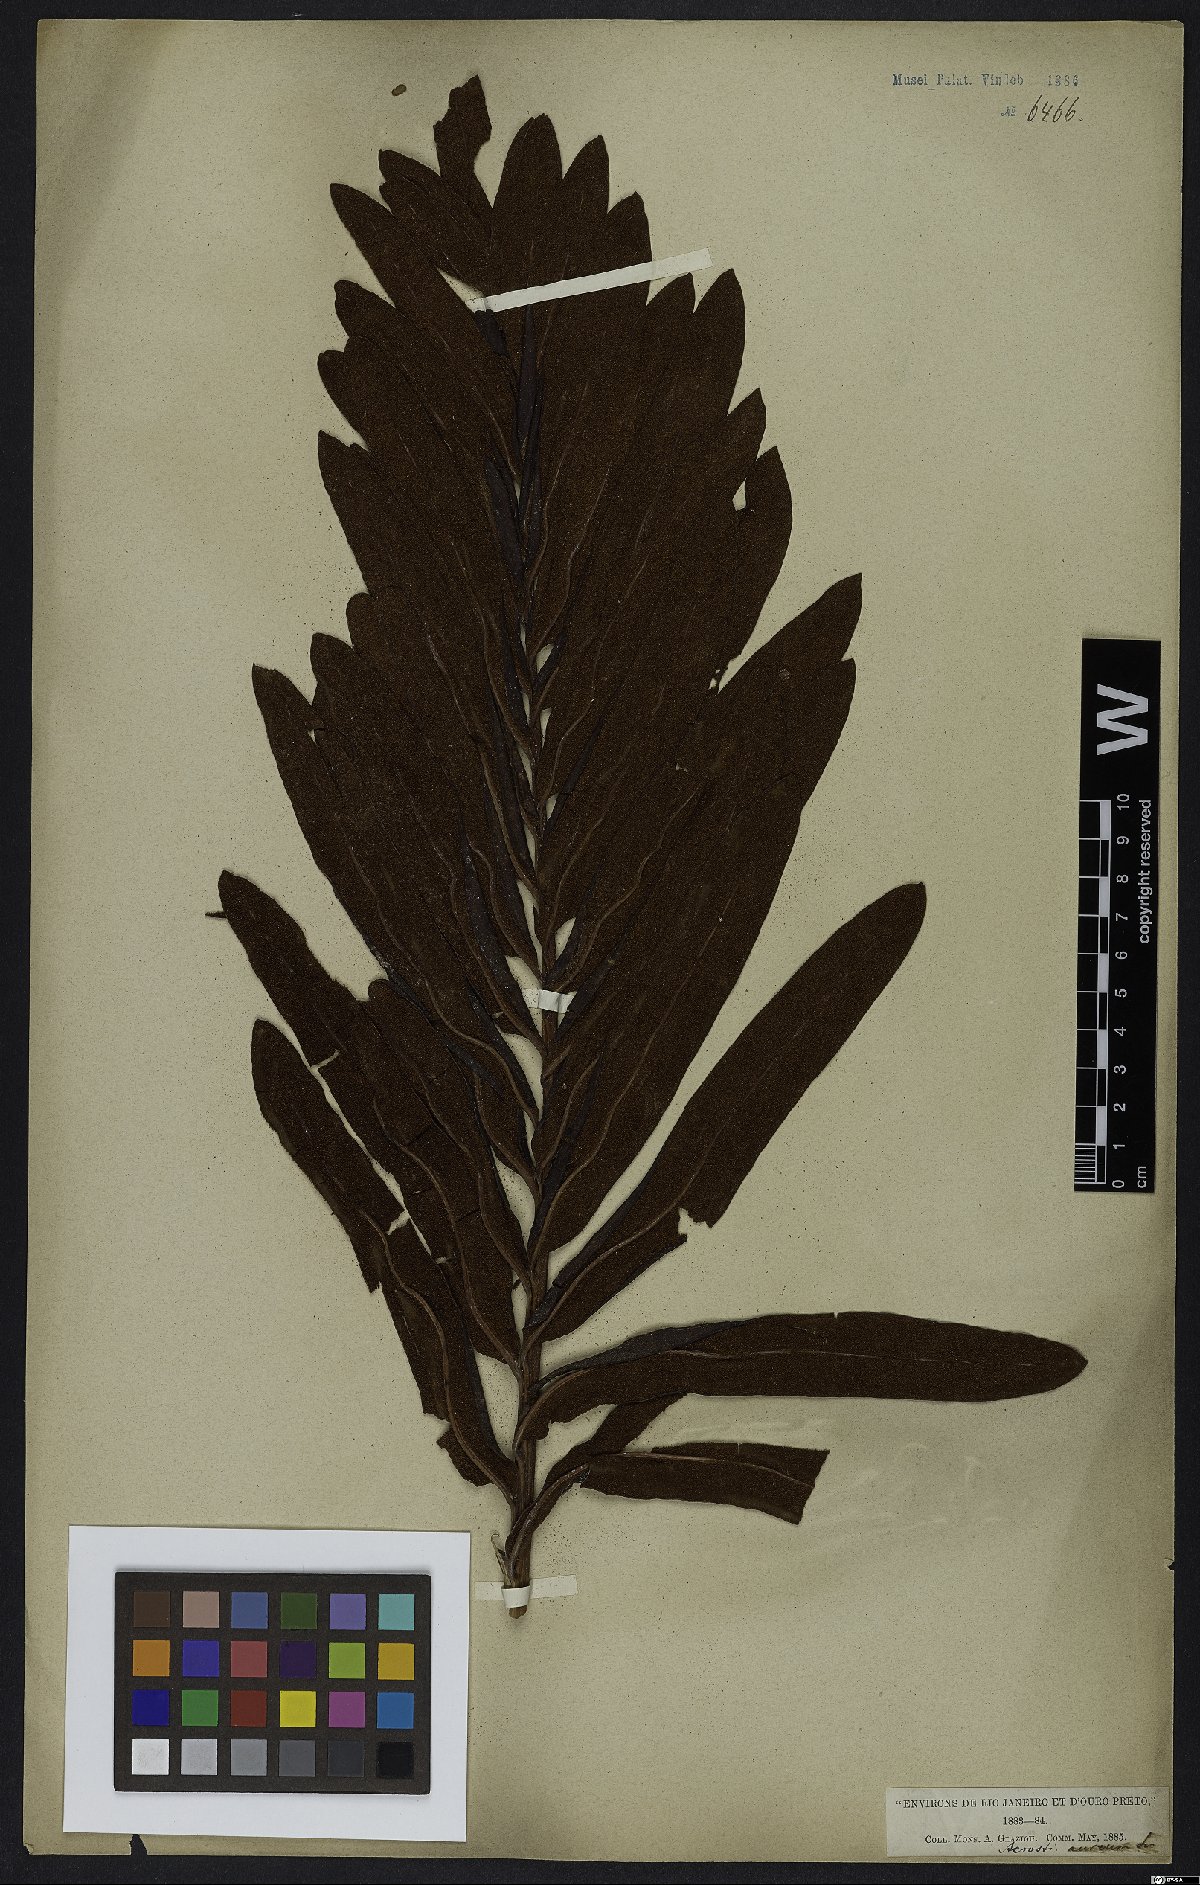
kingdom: Plantae
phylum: Tracheophyta
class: Polypodiopsida
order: Polypodiales
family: Pteridaceae
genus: Acrostichum
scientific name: Acrostichum aureum
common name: Leather fern
